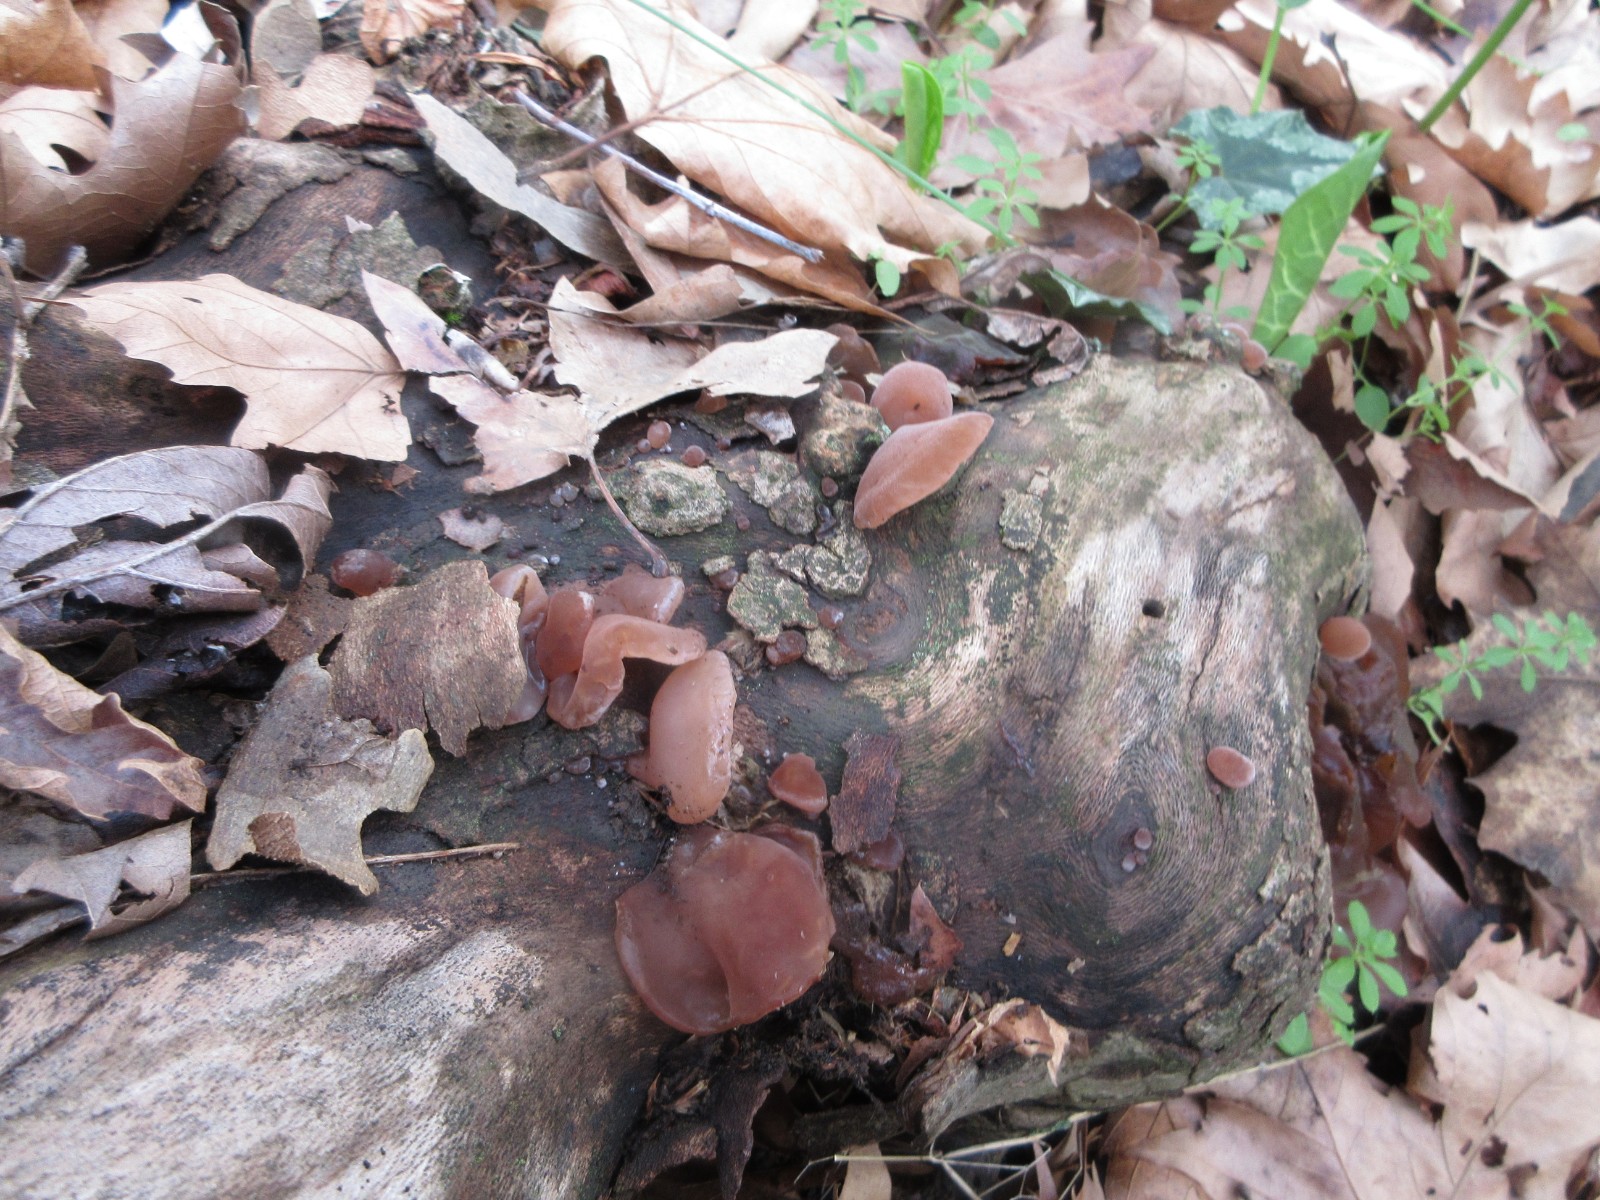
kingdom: Fungi
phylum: Basidiomycota
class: Agaricomycetes
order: Auriculariales
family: Auriculariaceae
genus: Auricularia
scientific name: Auricularia auricula-judae
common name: almindelig judasøre
